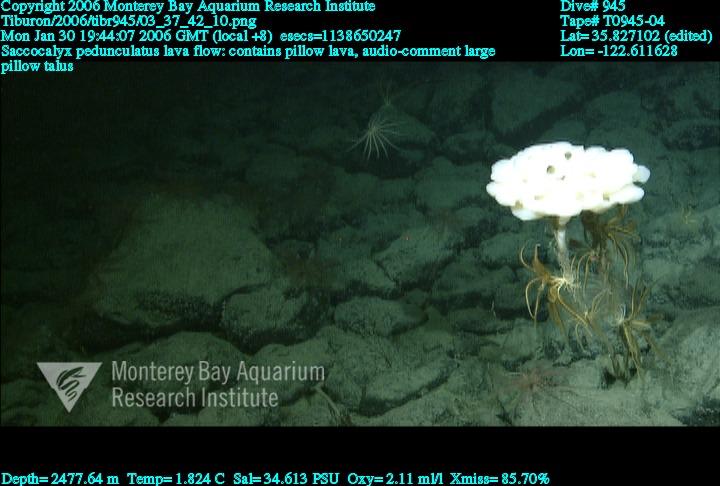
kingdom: Animalia
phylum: Porifera
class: Hexactinellida
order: Lyssacinosida
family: Euplectellidae
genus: Saccocalyx
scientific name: Saccocalyx pedunculatus
